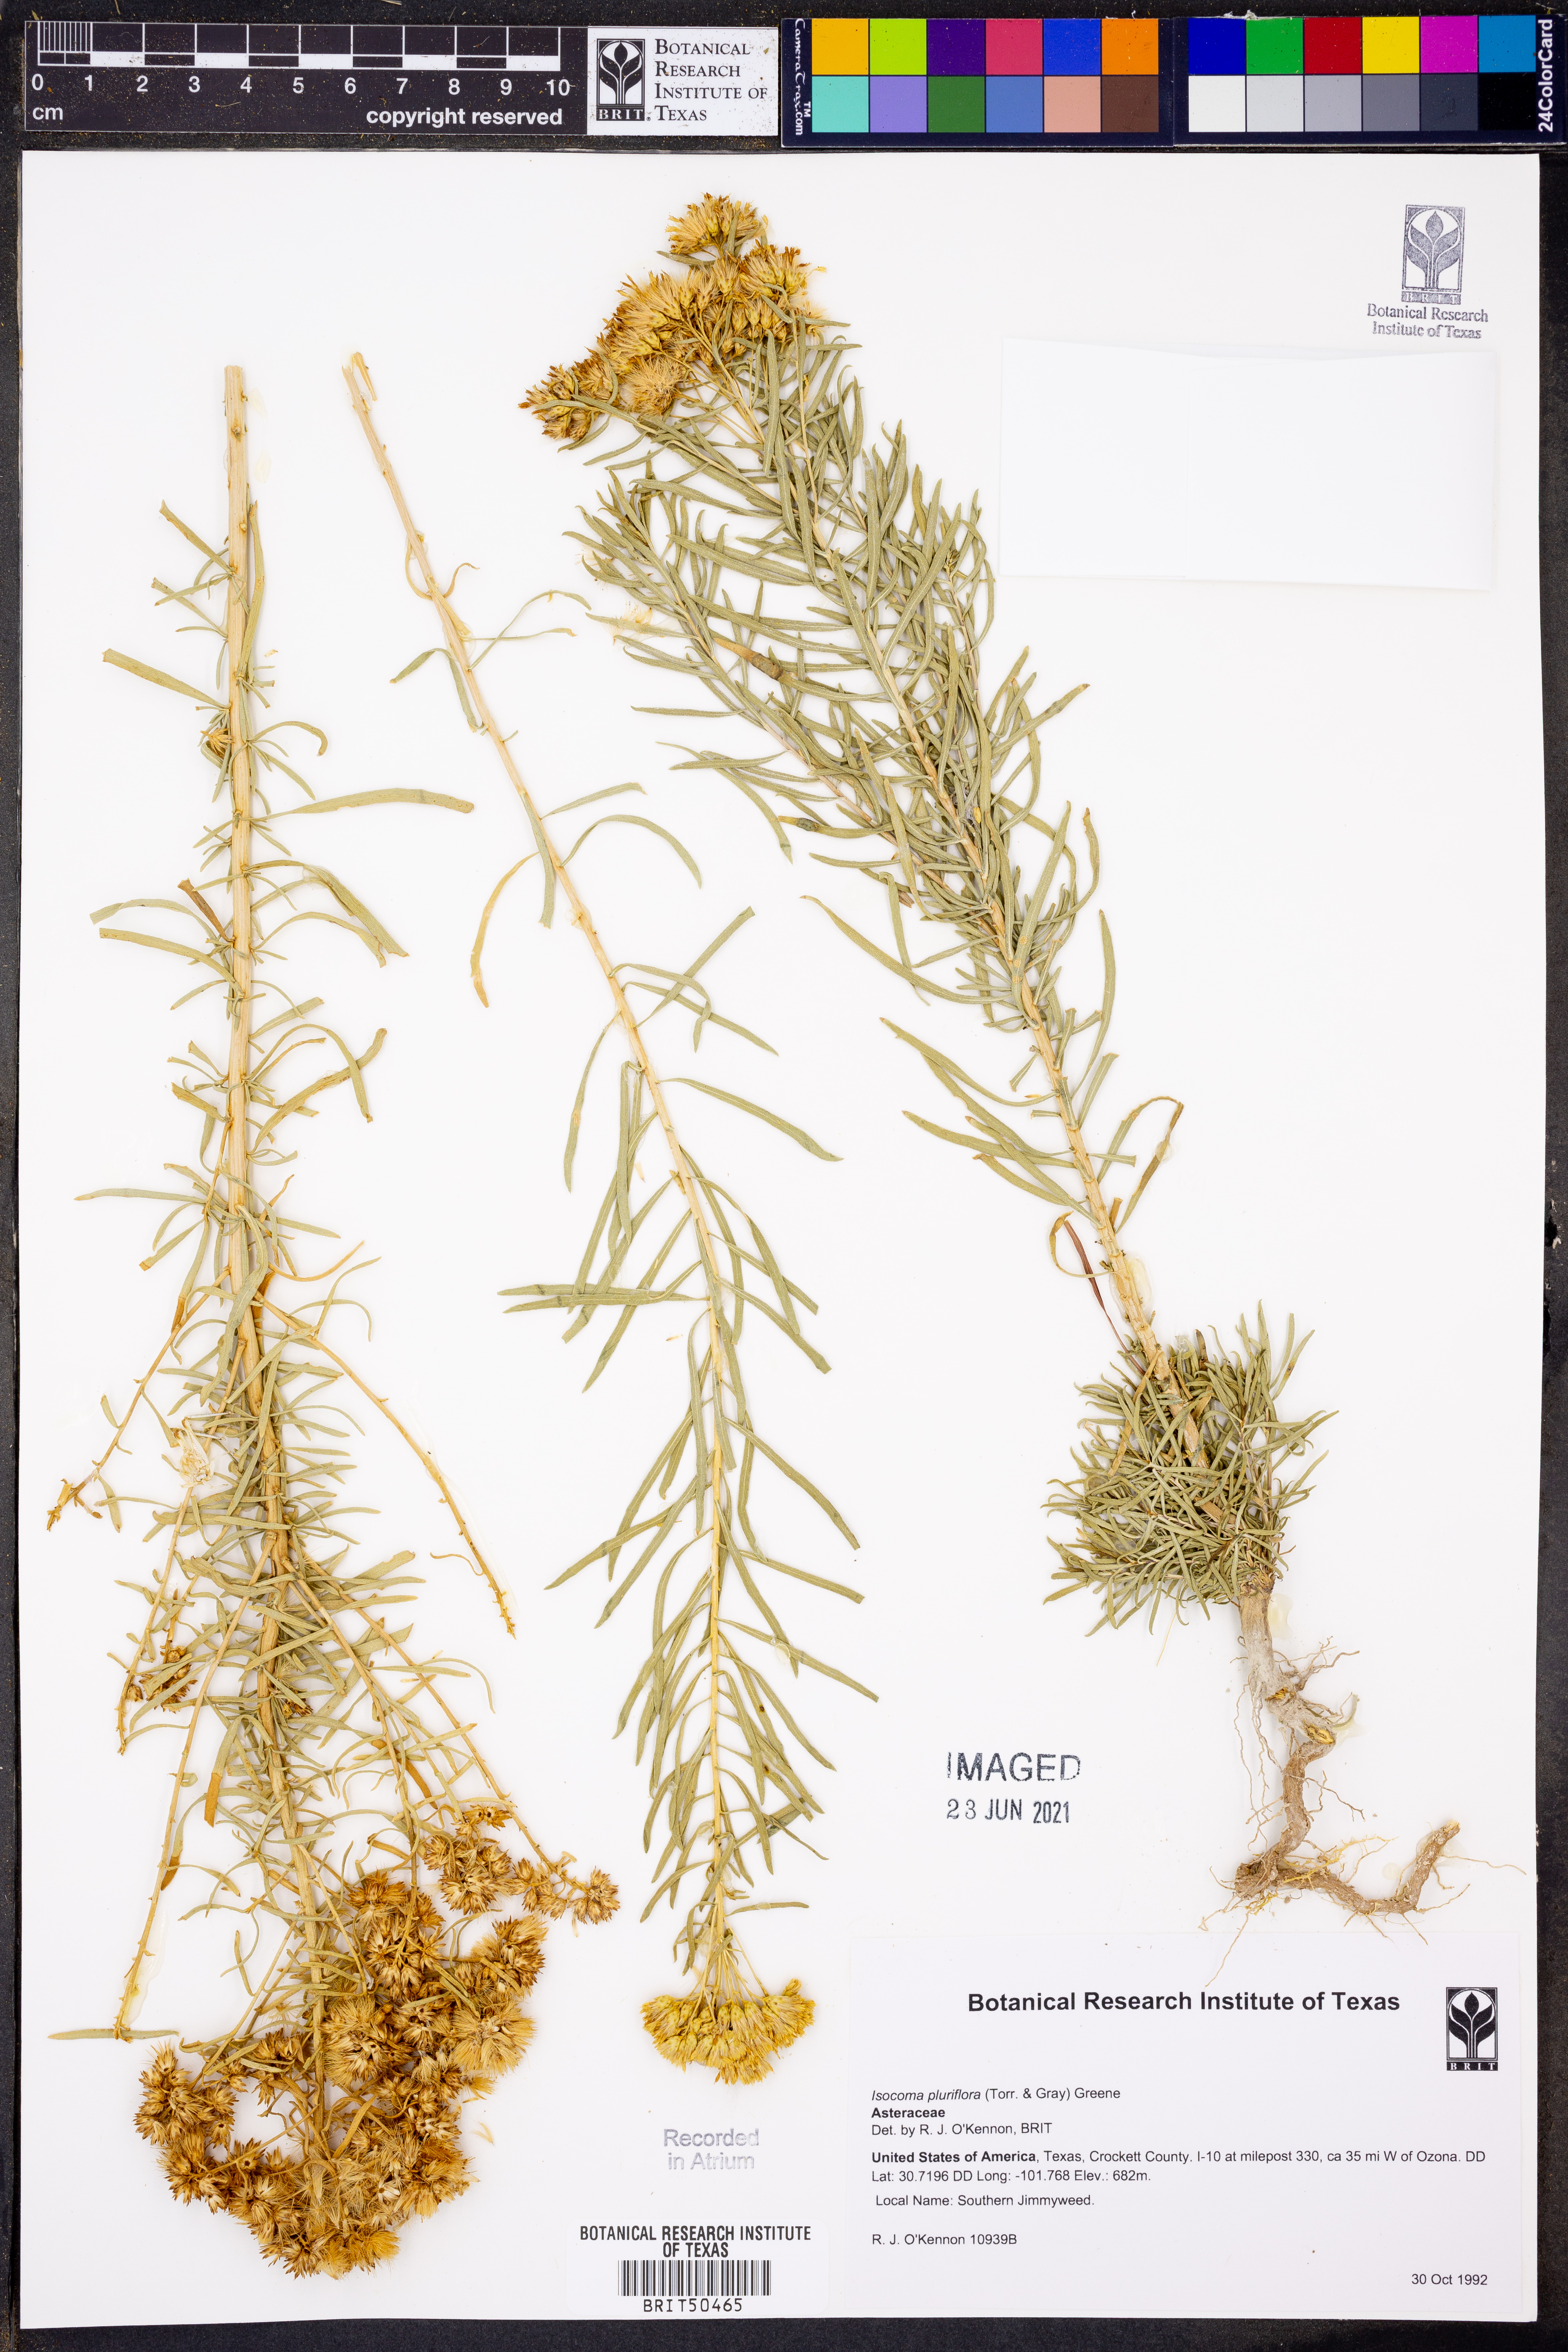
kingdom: Plantae
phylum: Tracheophyta
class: Magnoliopsida
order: Asterales
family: Asteraceae
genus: Isocoma
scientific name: Isocoma pluriflora
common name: Southern jimmyweed
